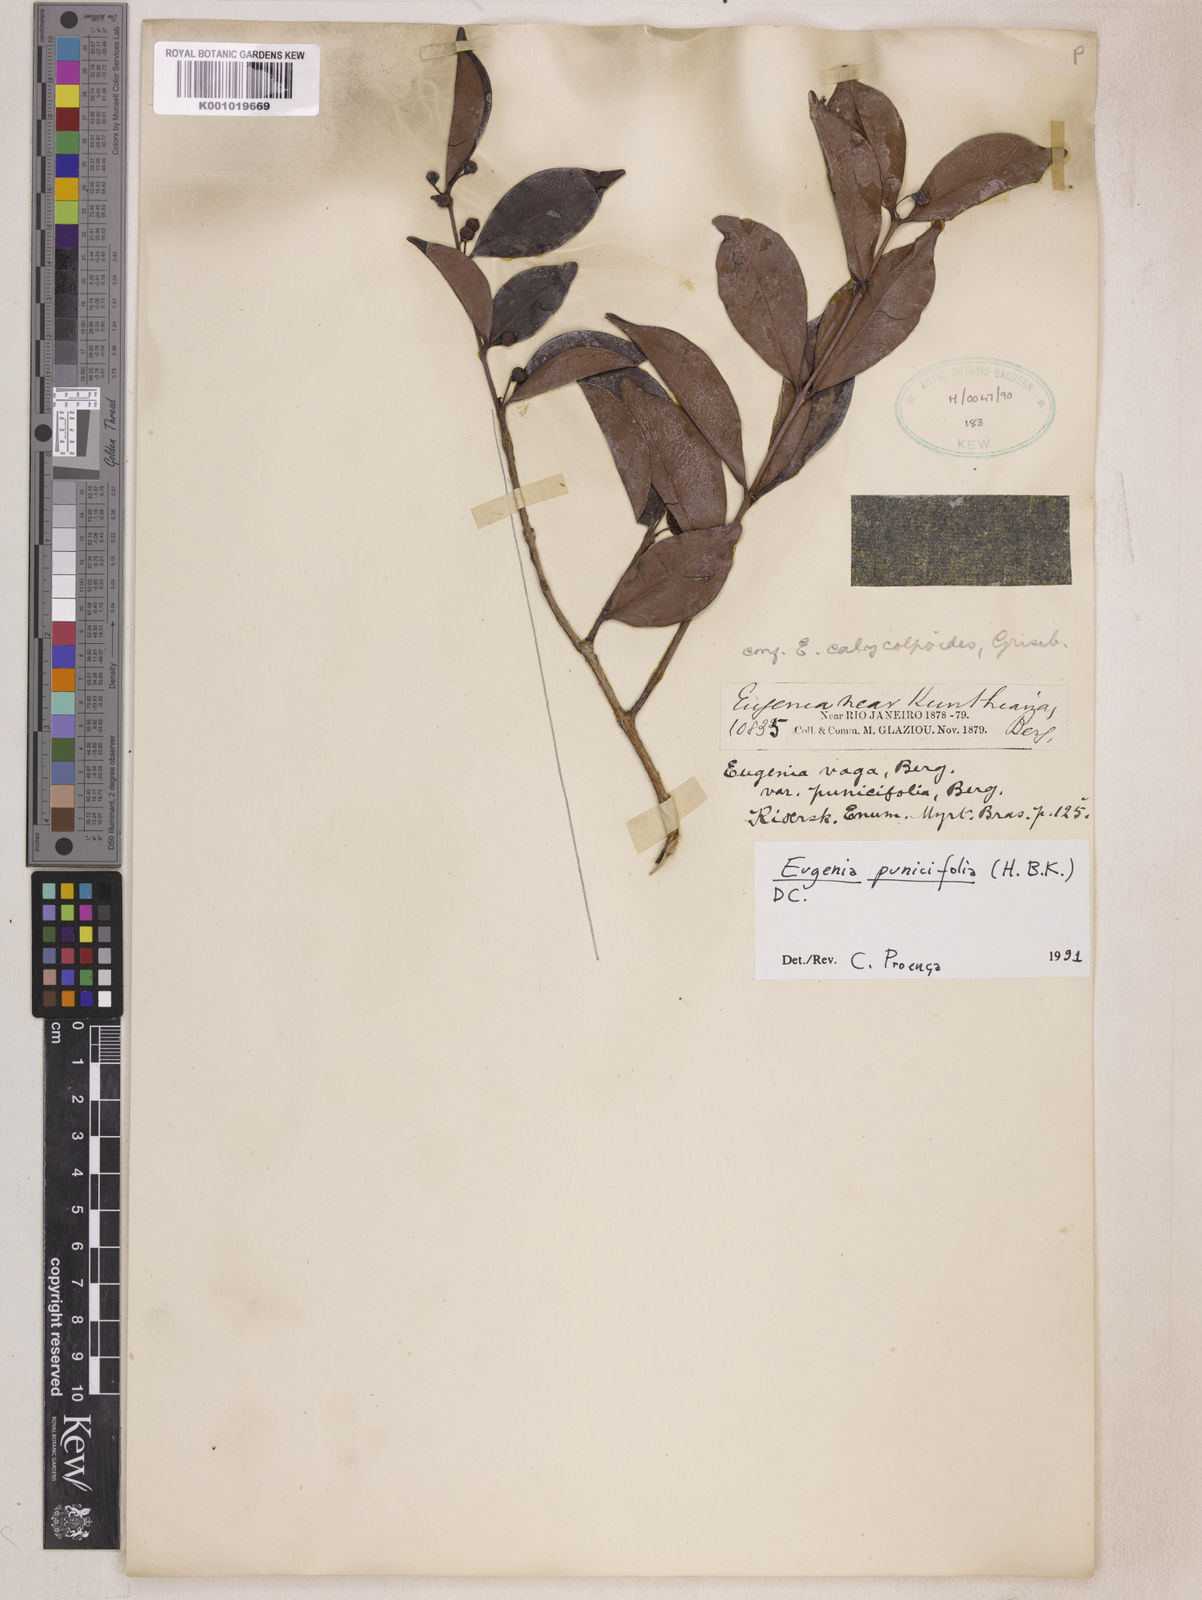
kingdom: Plantae
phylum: Tracheophyta
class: Magnoliopsida
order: Myrtales
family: Myrtaceae
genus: Eugenia
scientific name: Eugenia punicifolia
